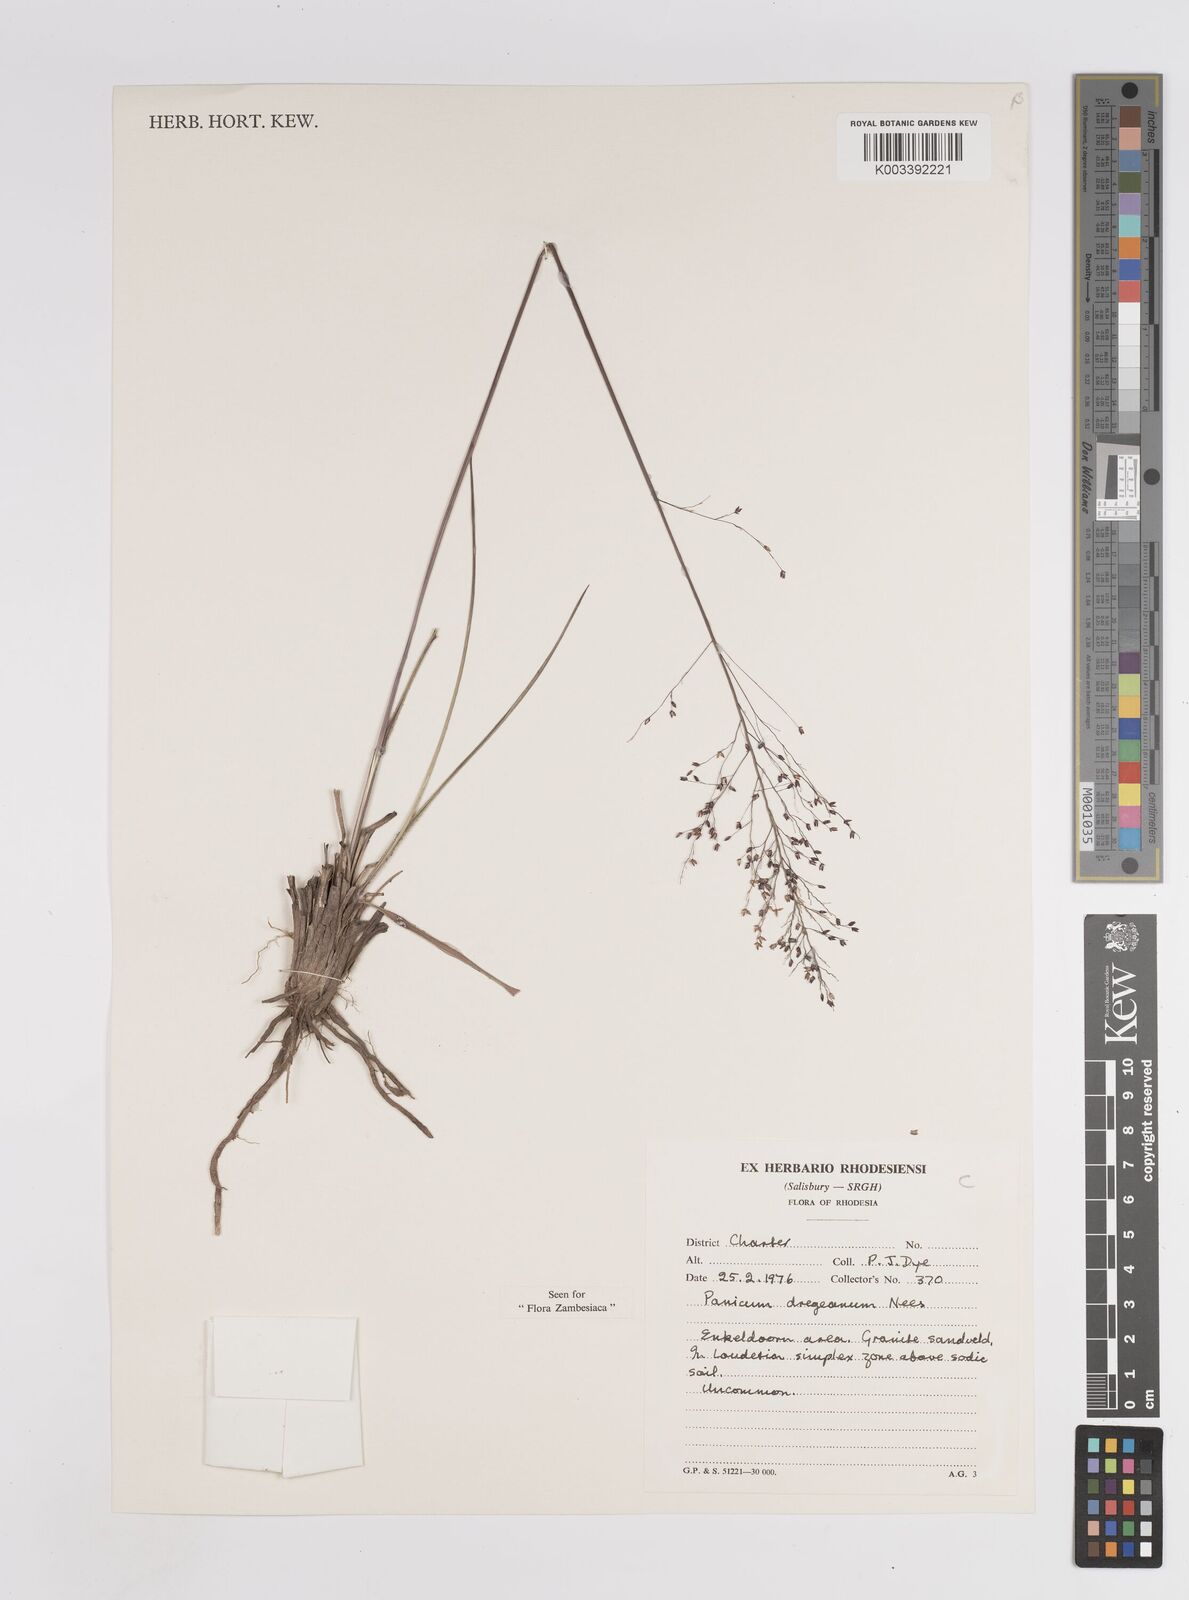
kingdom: Plantae
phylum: Tracheophyta
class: Liliopsida
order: Poales
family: Poaceae
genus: Panicum
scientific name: Panicum dregeanum
